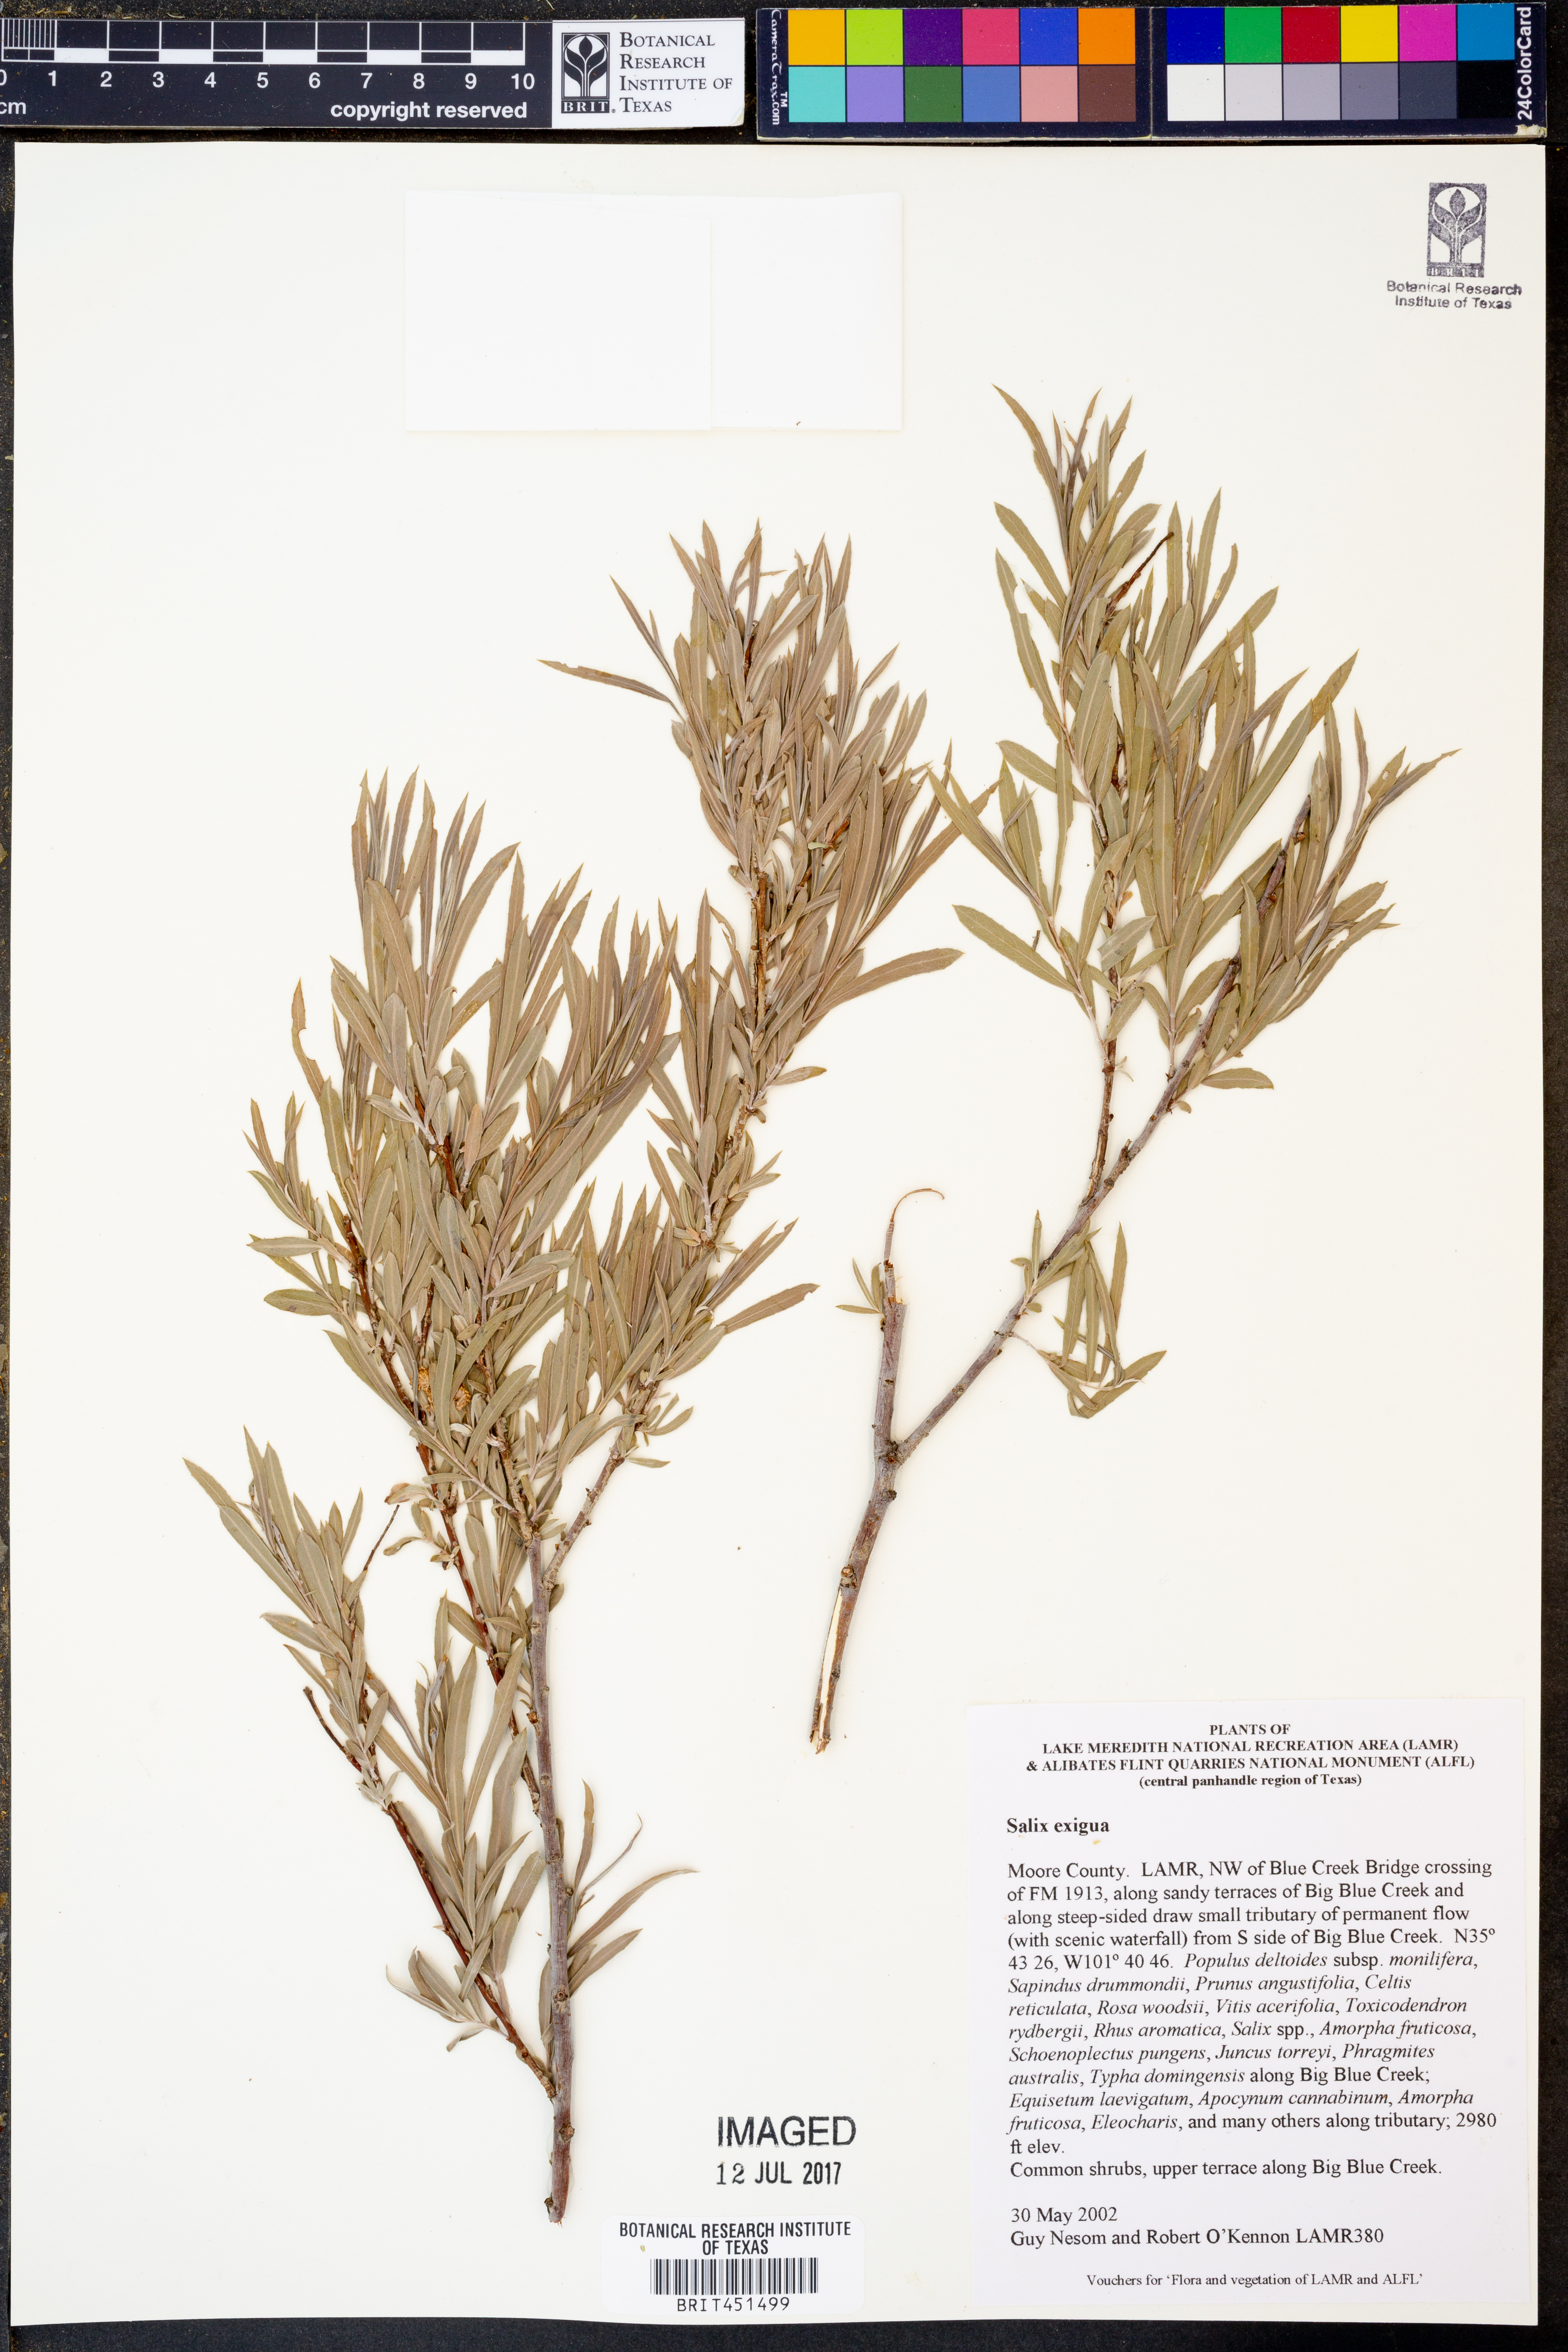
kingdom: Plantae
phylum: Tracheophyta
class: Magnoliopsida
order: Malpighiales
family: Salicaceae
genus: Salix
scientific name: Salix exigua
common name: Coyote willow
